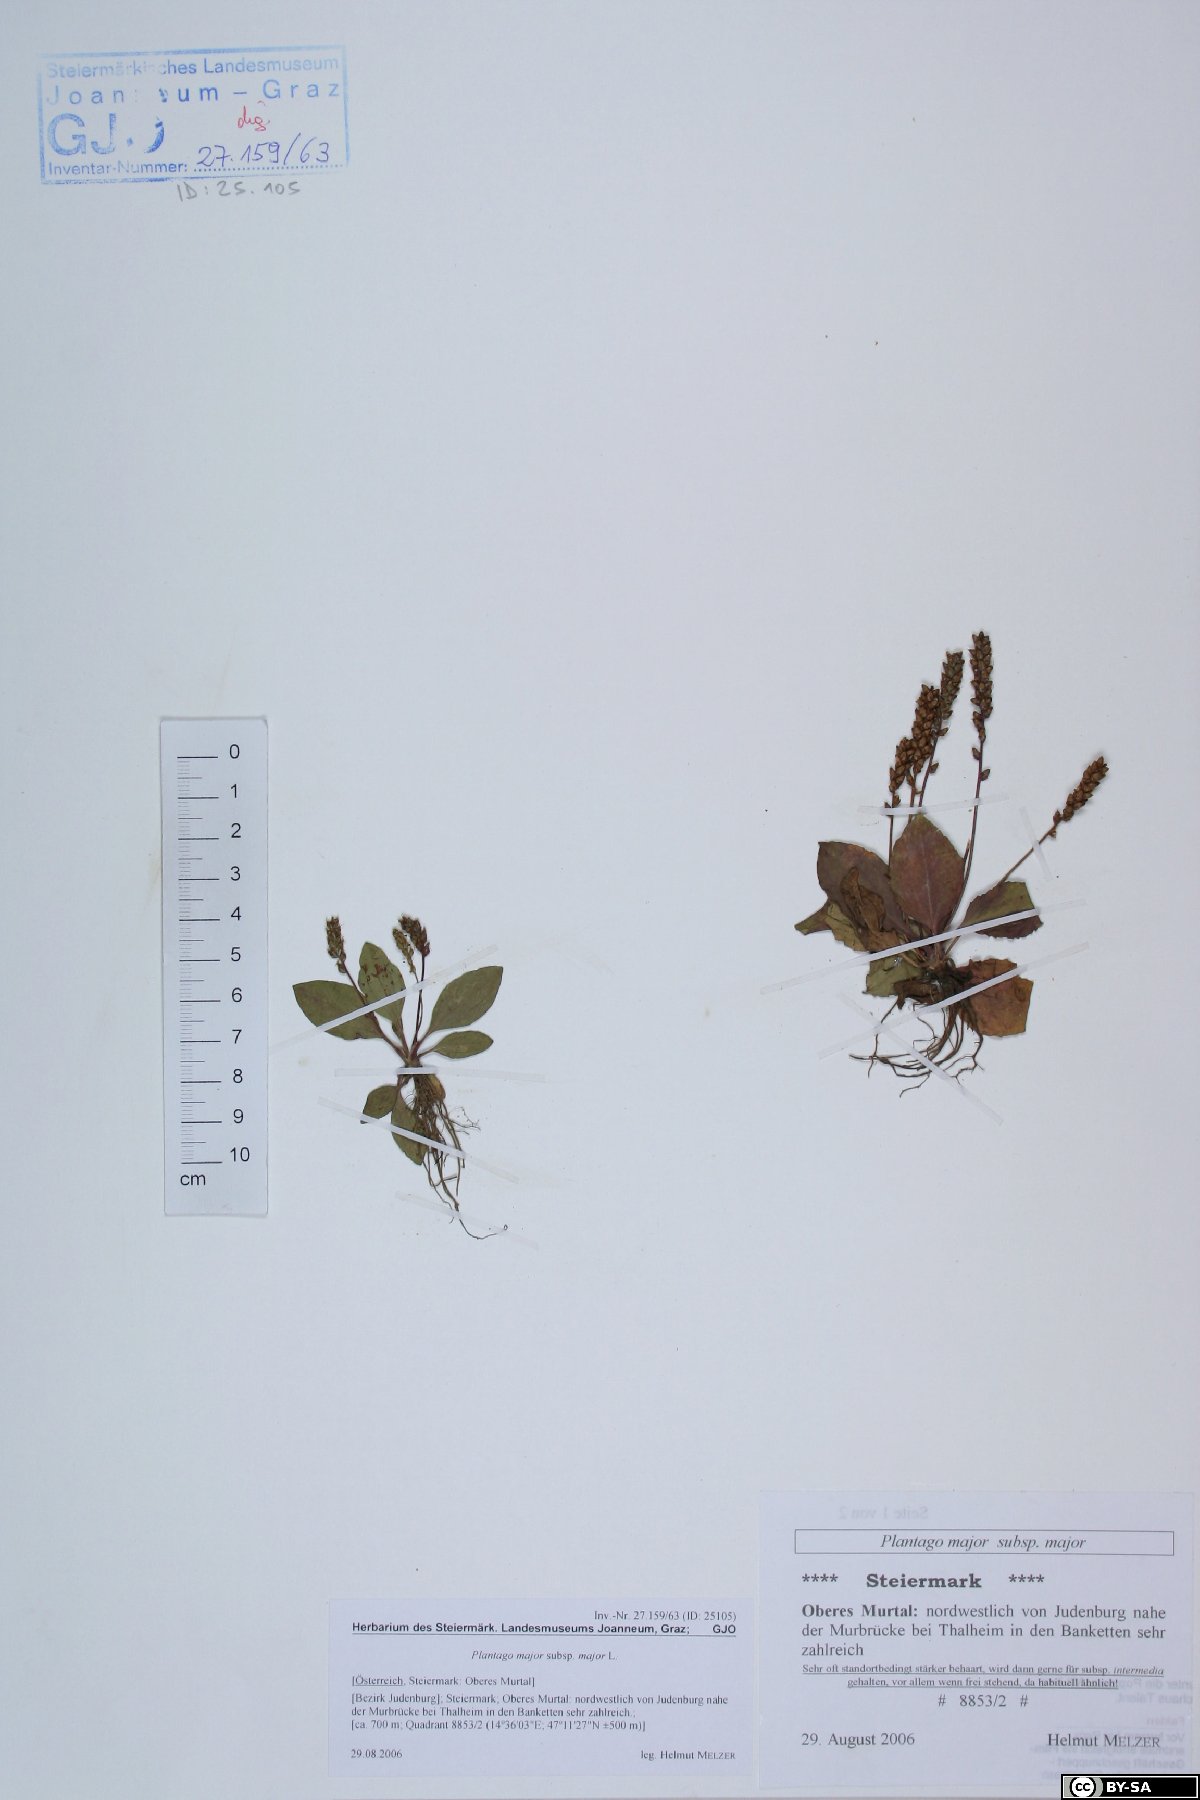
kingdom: Plantae
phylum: Tracheophyta
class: Magnoliopsida
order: Lamiales
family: Plantaginaceae
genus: Plantago
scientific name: Plantago major
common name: Common plantain
